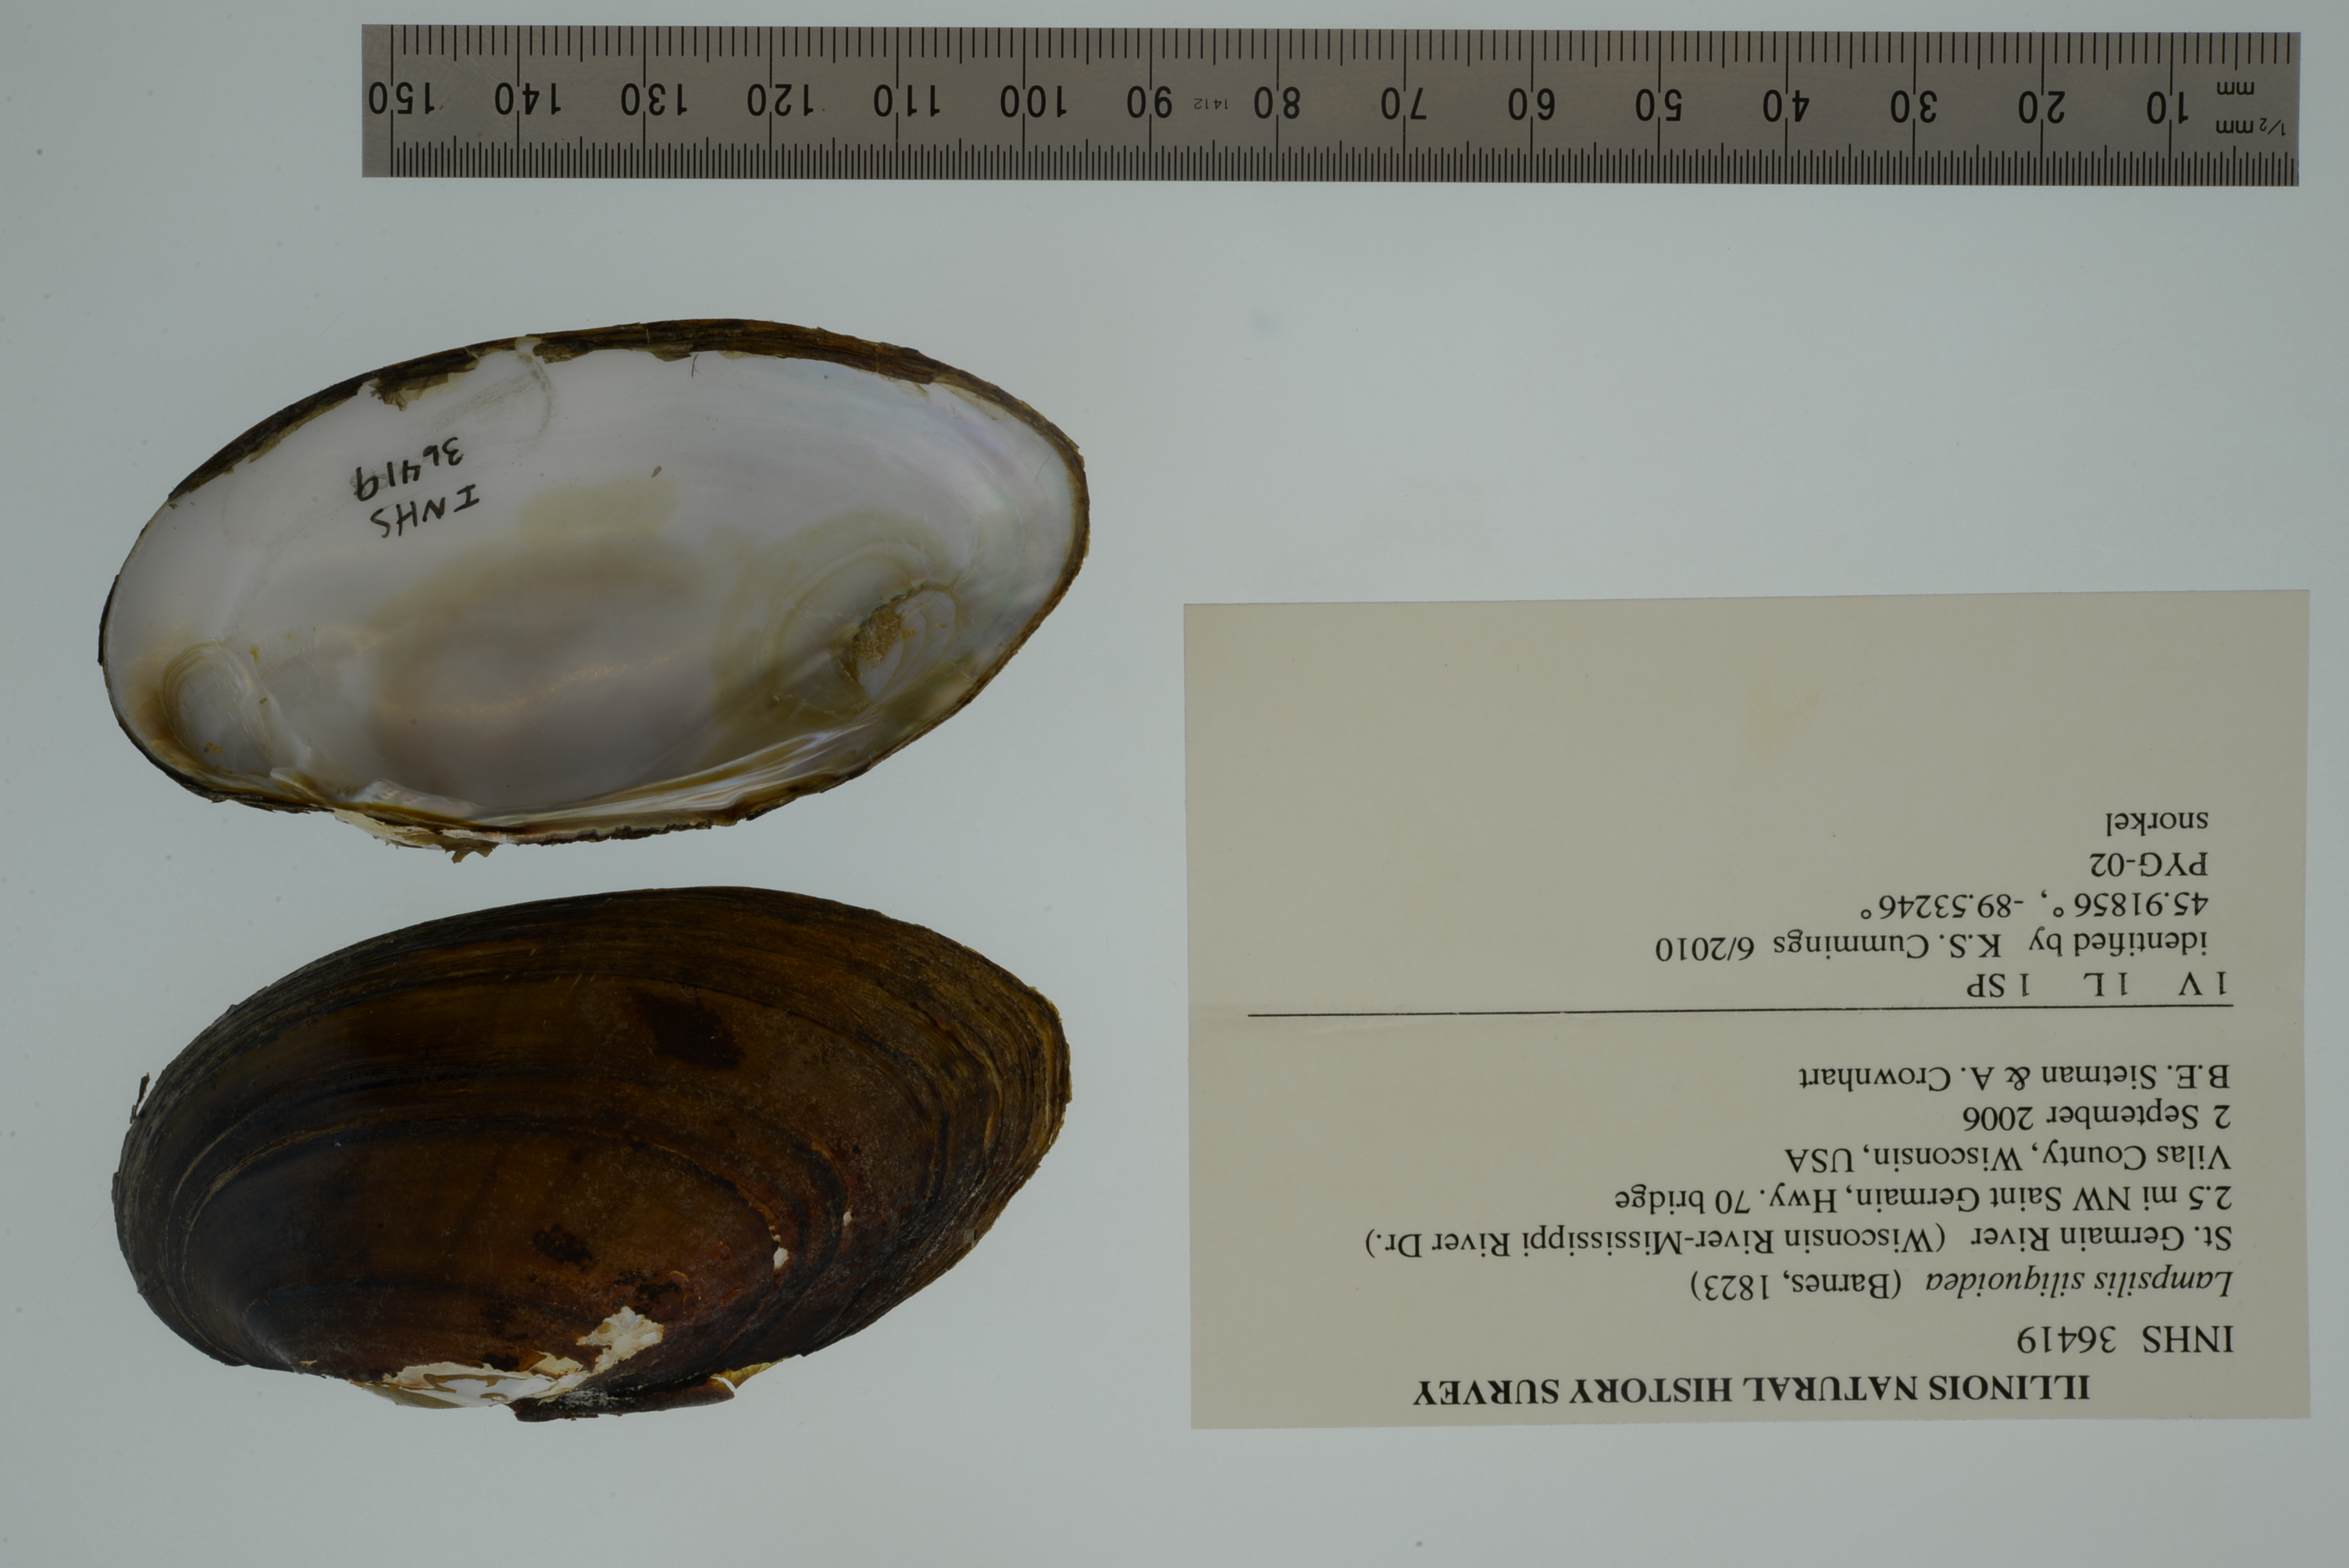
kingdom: Animalia
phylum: Mollusca
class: Bivalvia
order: Unionida
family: Unionidae
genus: Lampsilis
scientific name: Lampsilis siliquoidea
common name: Fatmucket
